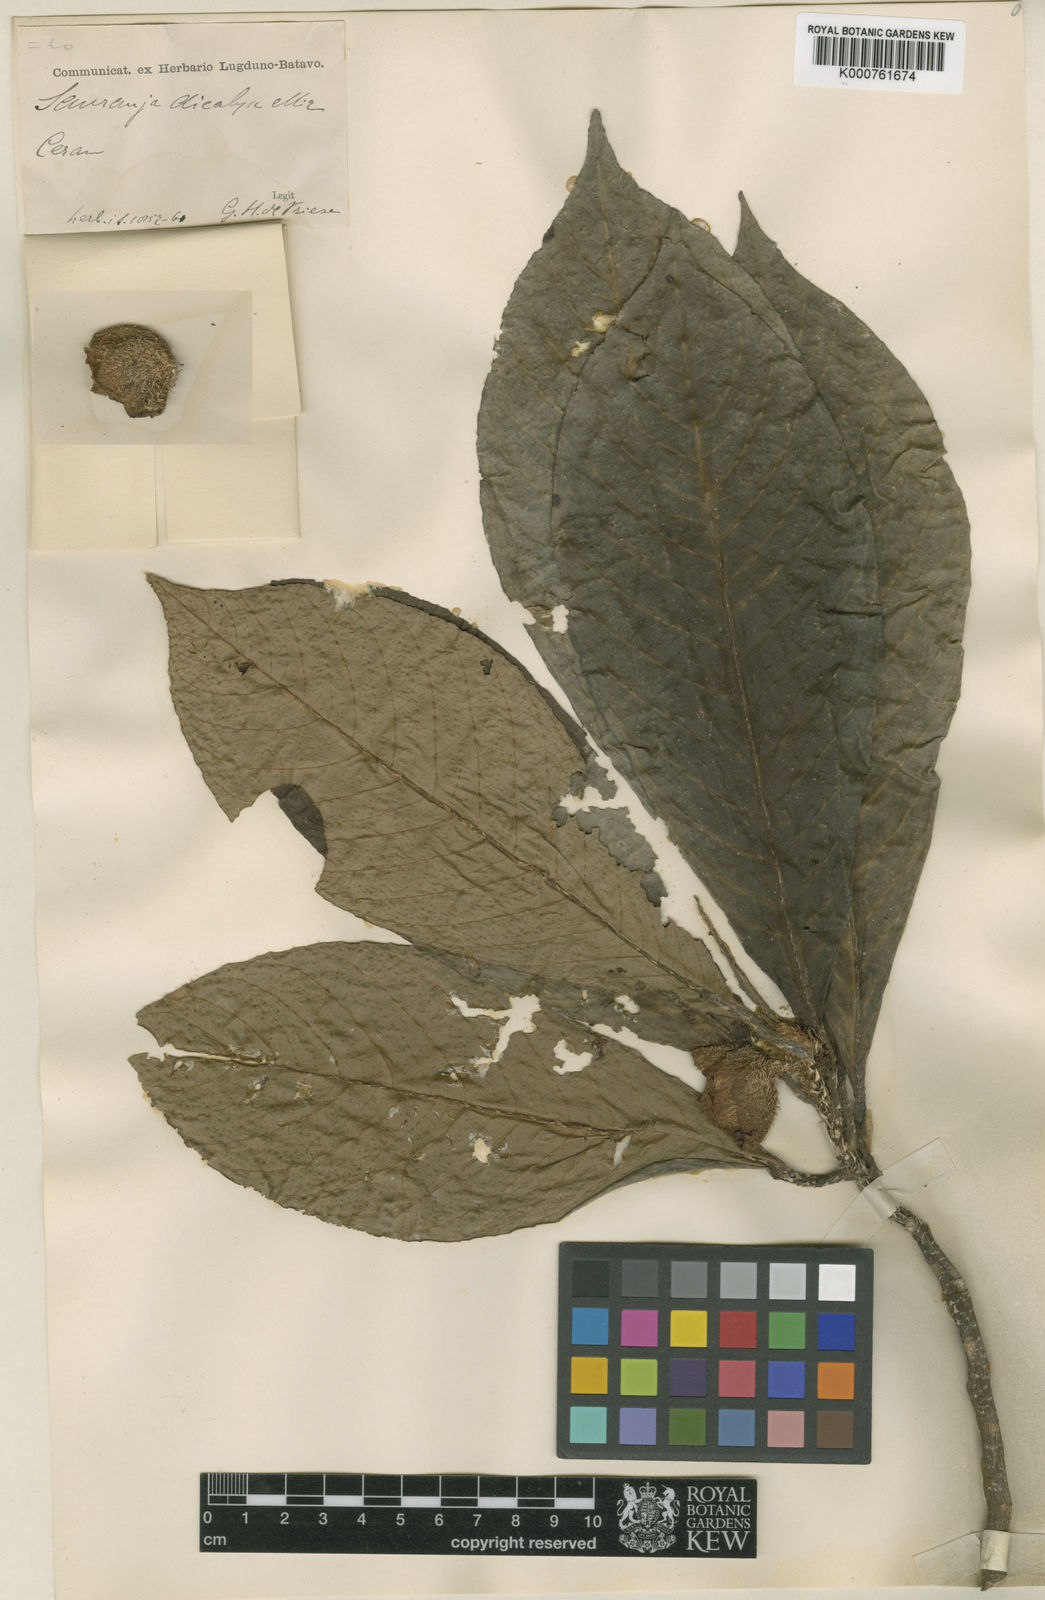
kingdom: Plantae
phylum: Tracheophyta
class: Magnoliopsida
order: Ericales
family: Actinidiaceae
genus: Saurauia
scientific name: Saurauia dicalyx
